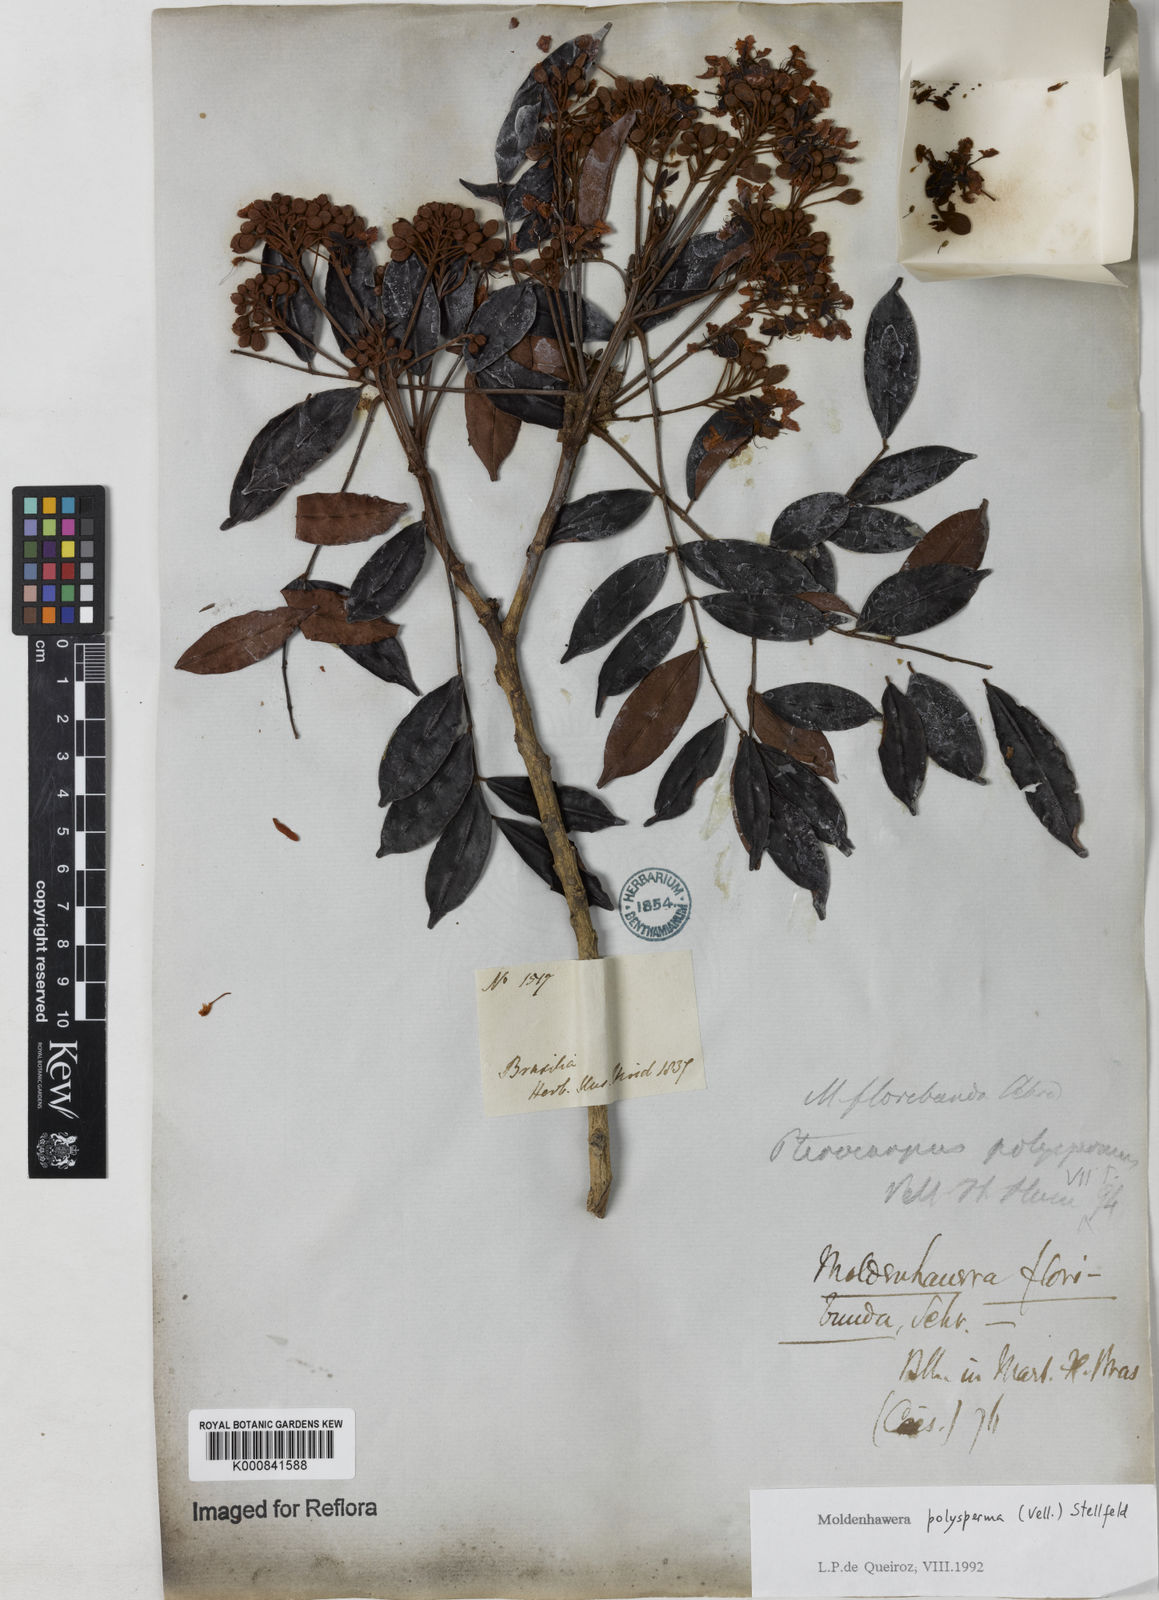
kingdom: Plantae
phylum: Tracheophyta
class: Magnoliopsida
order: Fabales
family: Fabaceae
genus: Moldenhawera
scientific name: Moldenhawera polysperma
